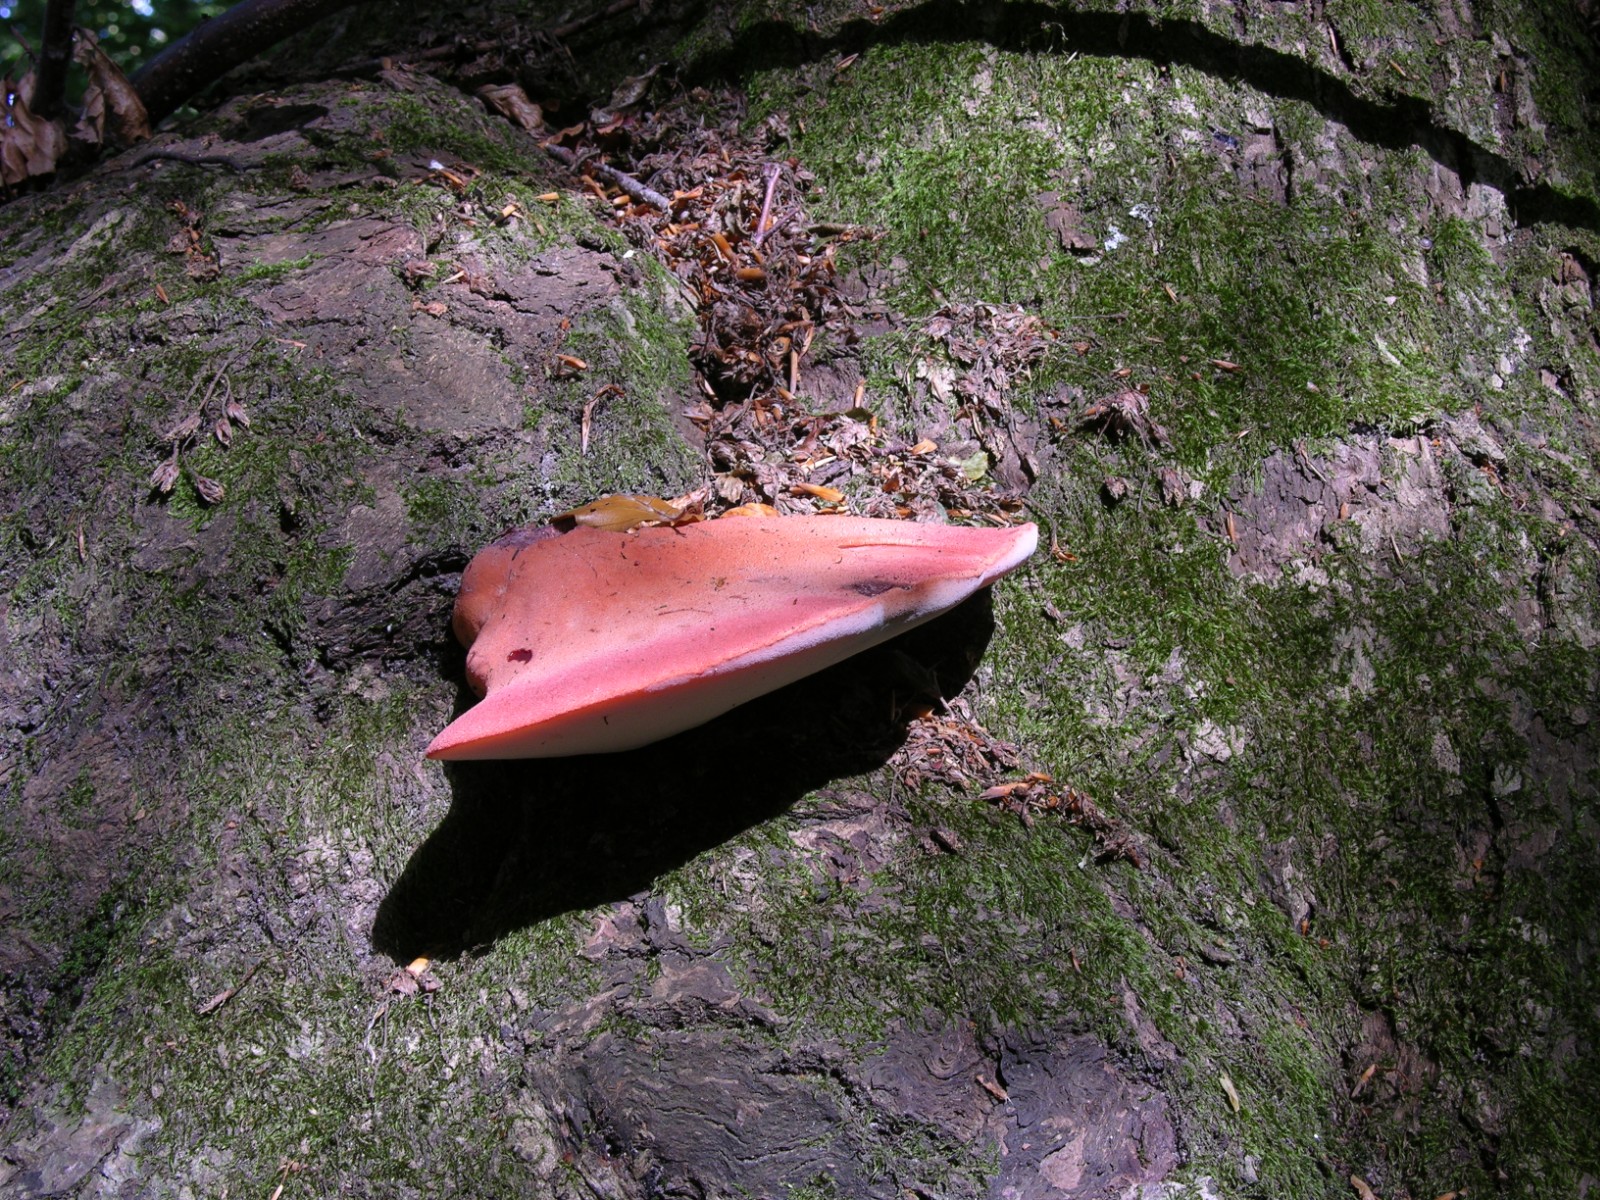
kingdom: Fungi
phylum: Basidiomycota
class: Agaricomycetes
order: Agaricales
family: Fistulinaceae
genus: Fistulina
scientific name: Fistulina hepatica
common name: oksetunge
